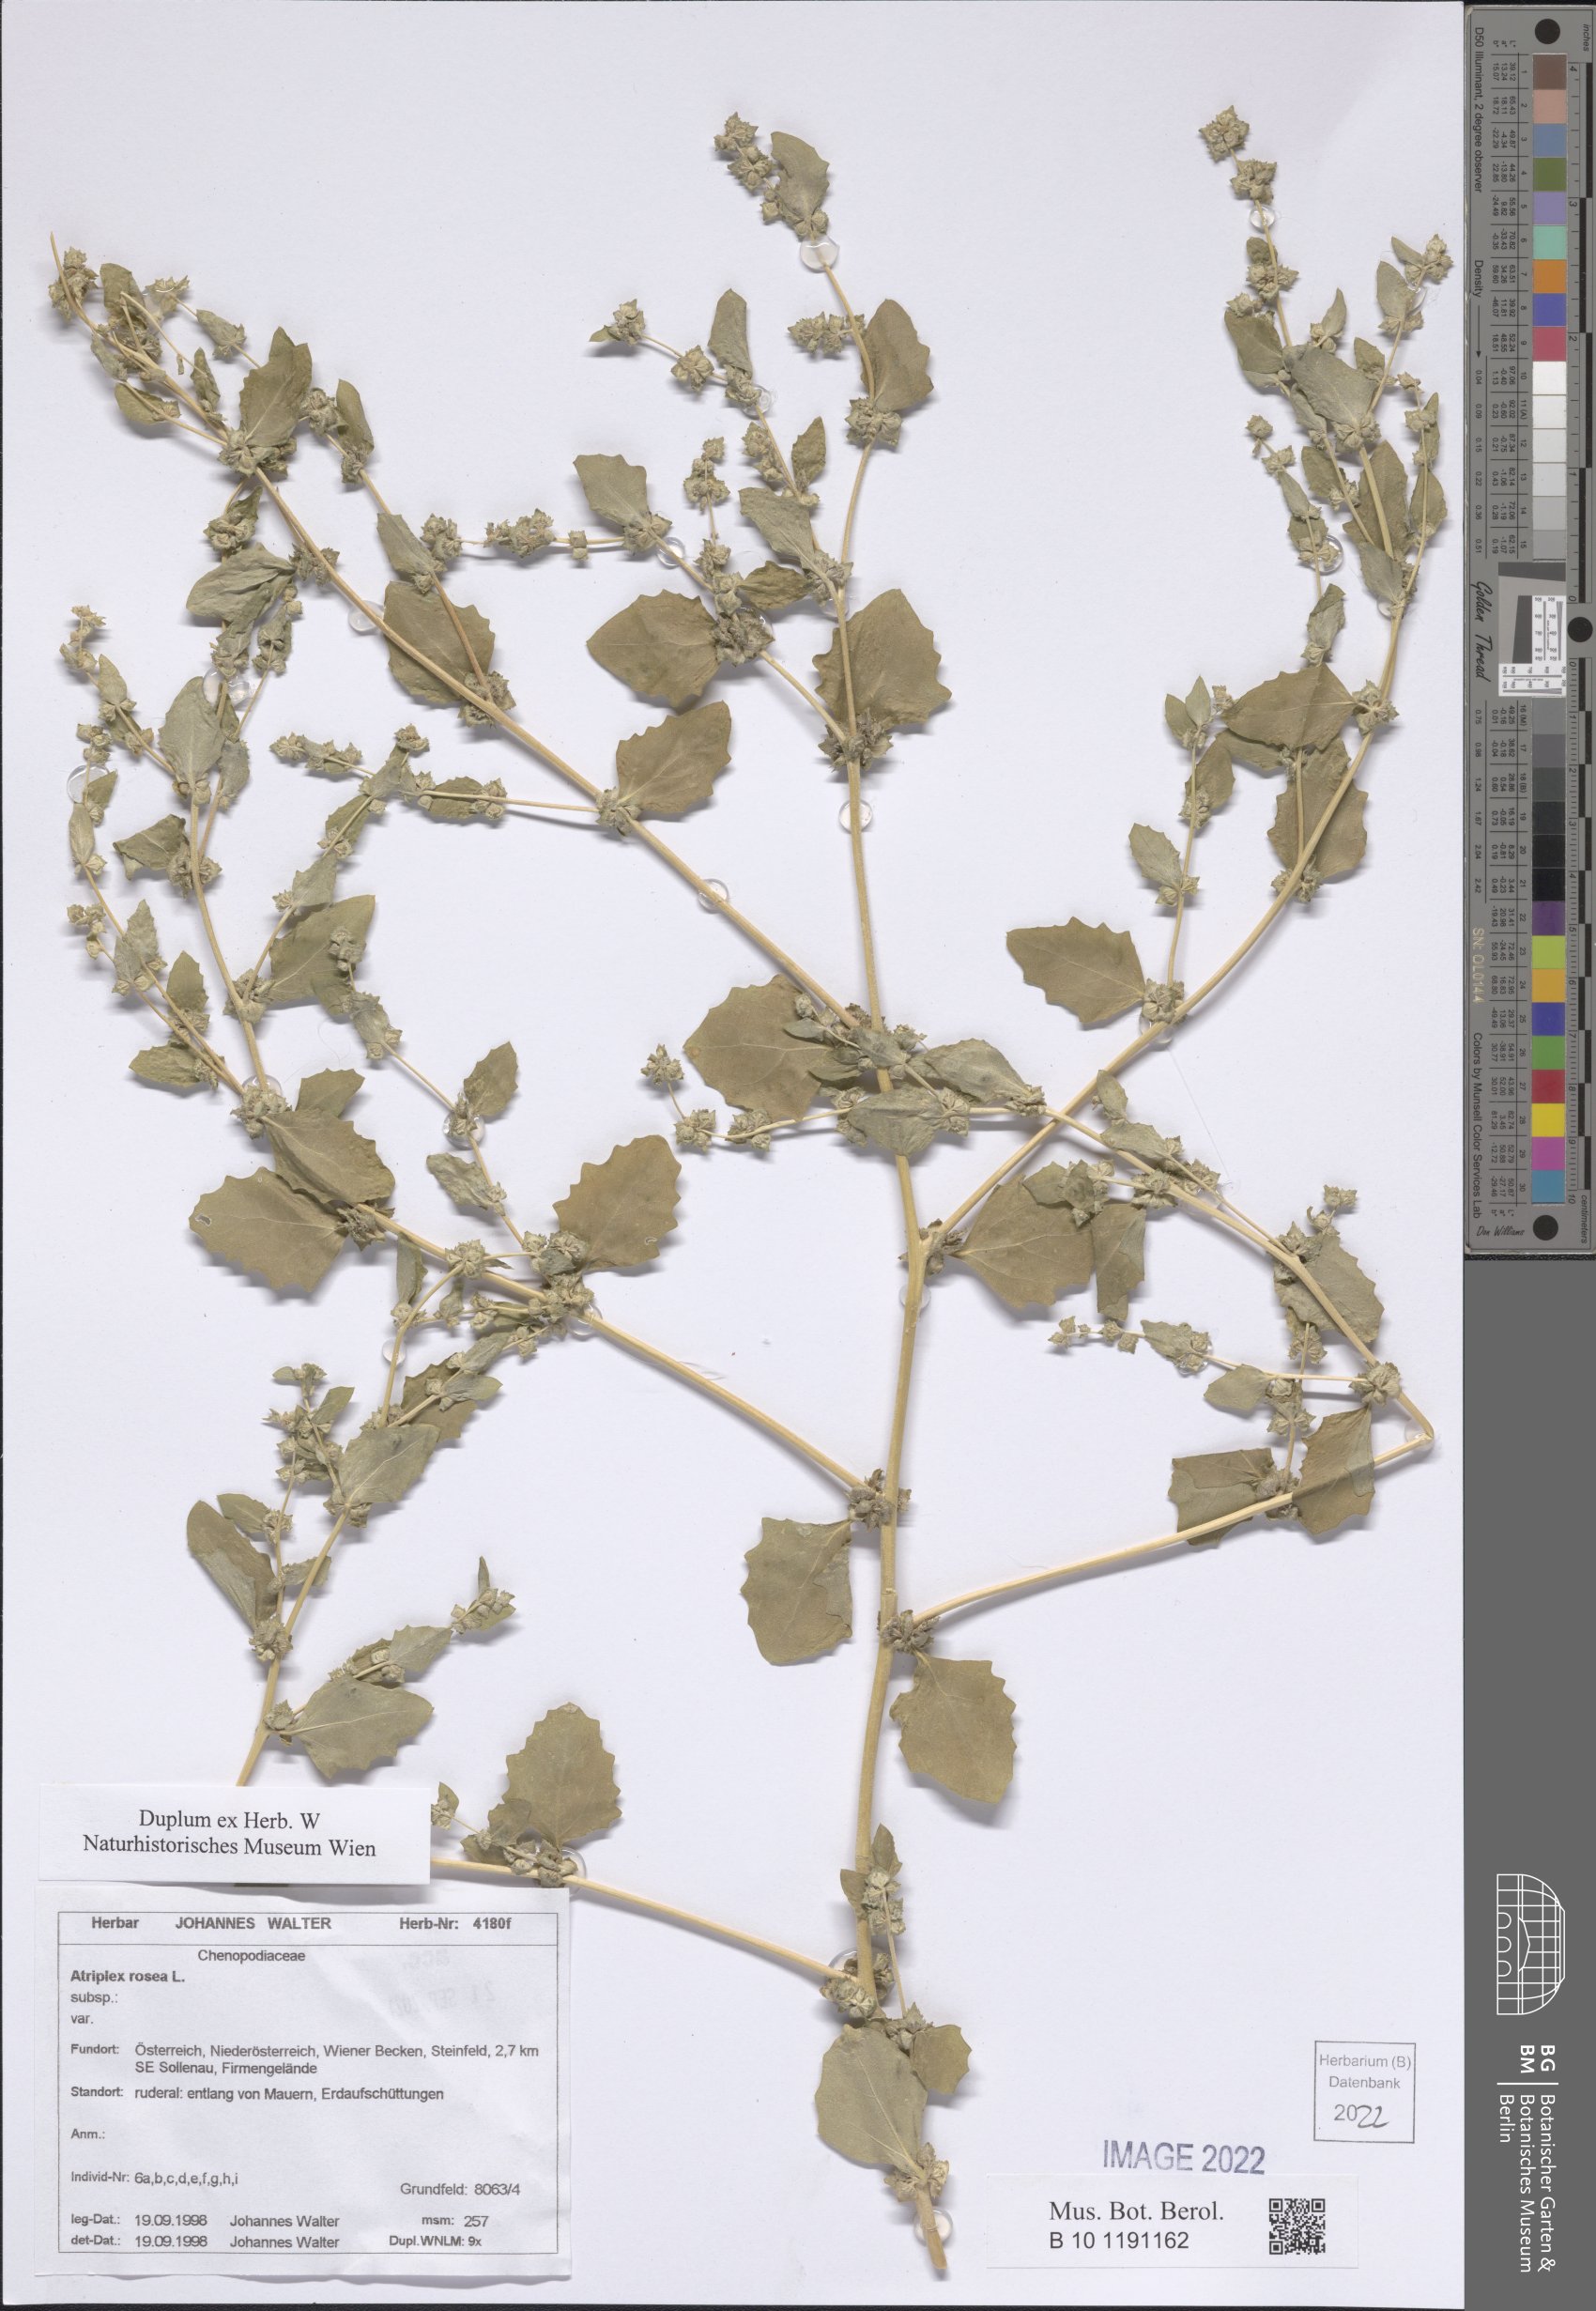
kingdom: Plantae
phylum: Tracheophyta
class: Magnoliopsida
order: Caryophyllales
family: Amaranthaceae
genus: Atriplex
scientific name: Atriplex rosea
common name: Tumbling saltweed
